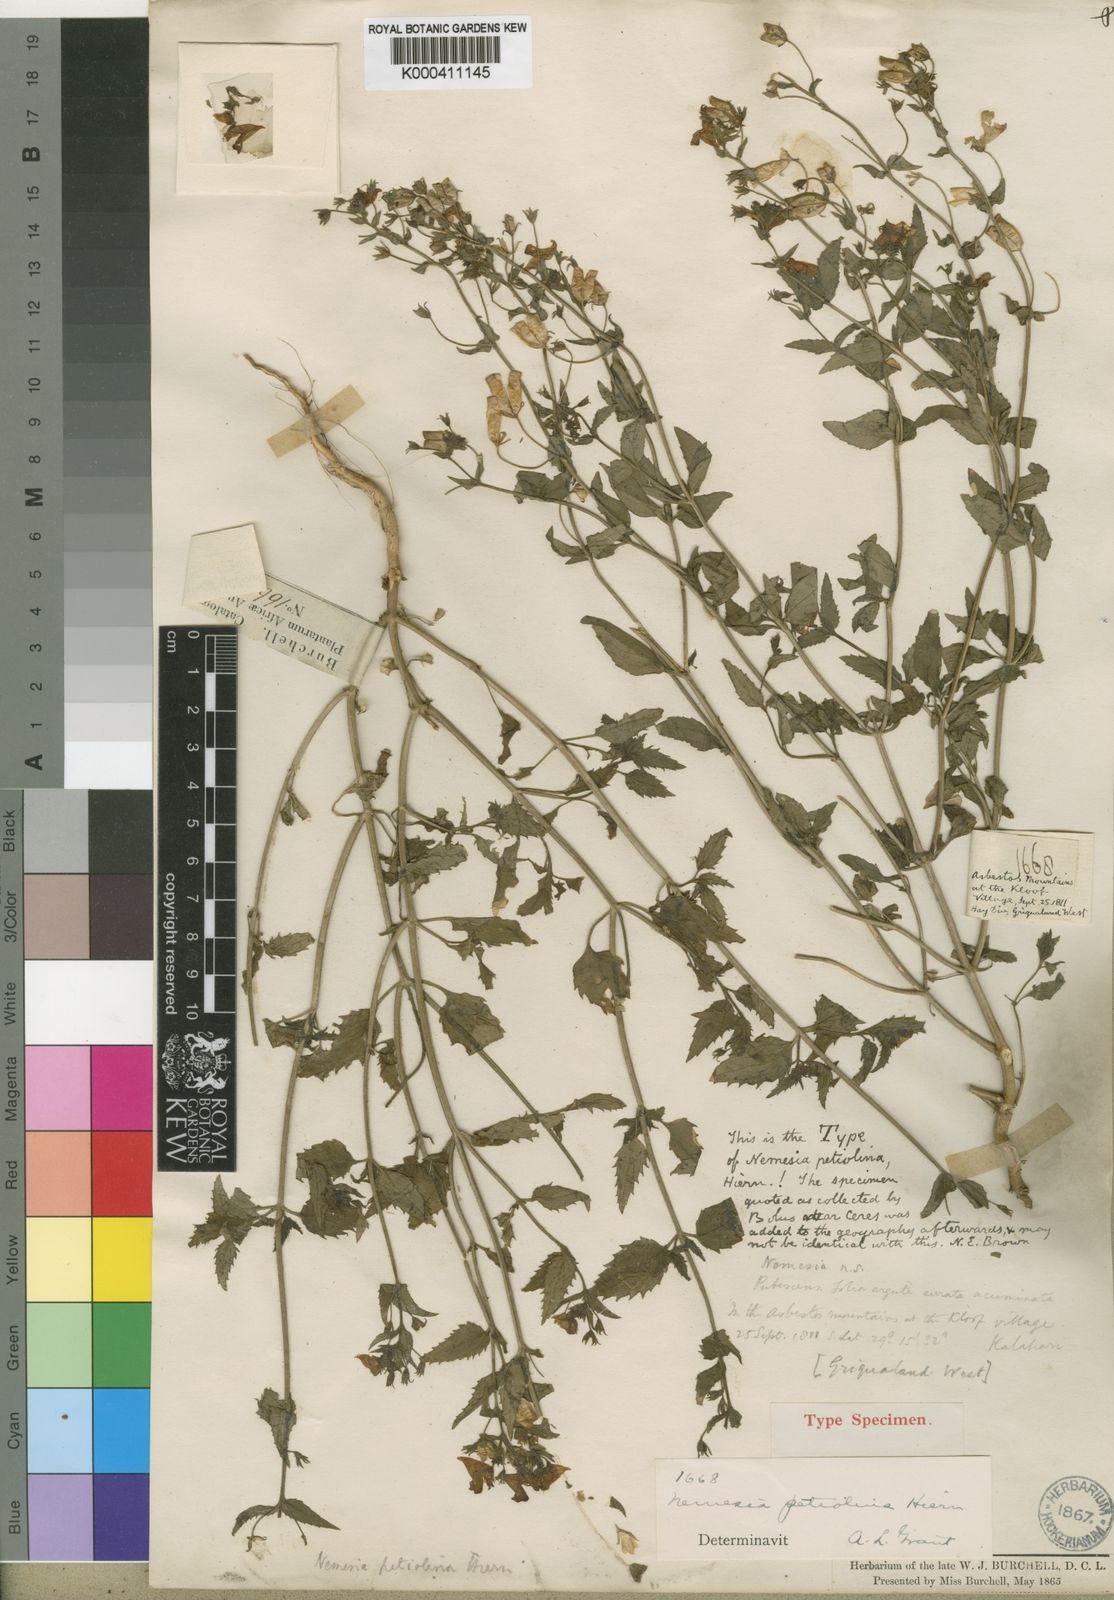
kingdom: Plantae
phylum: Tracheophyta
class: Magnoliopsida
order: Lamiales
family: Scrophulariaceae
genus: Nemesia
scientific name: Nemesia petiolina
